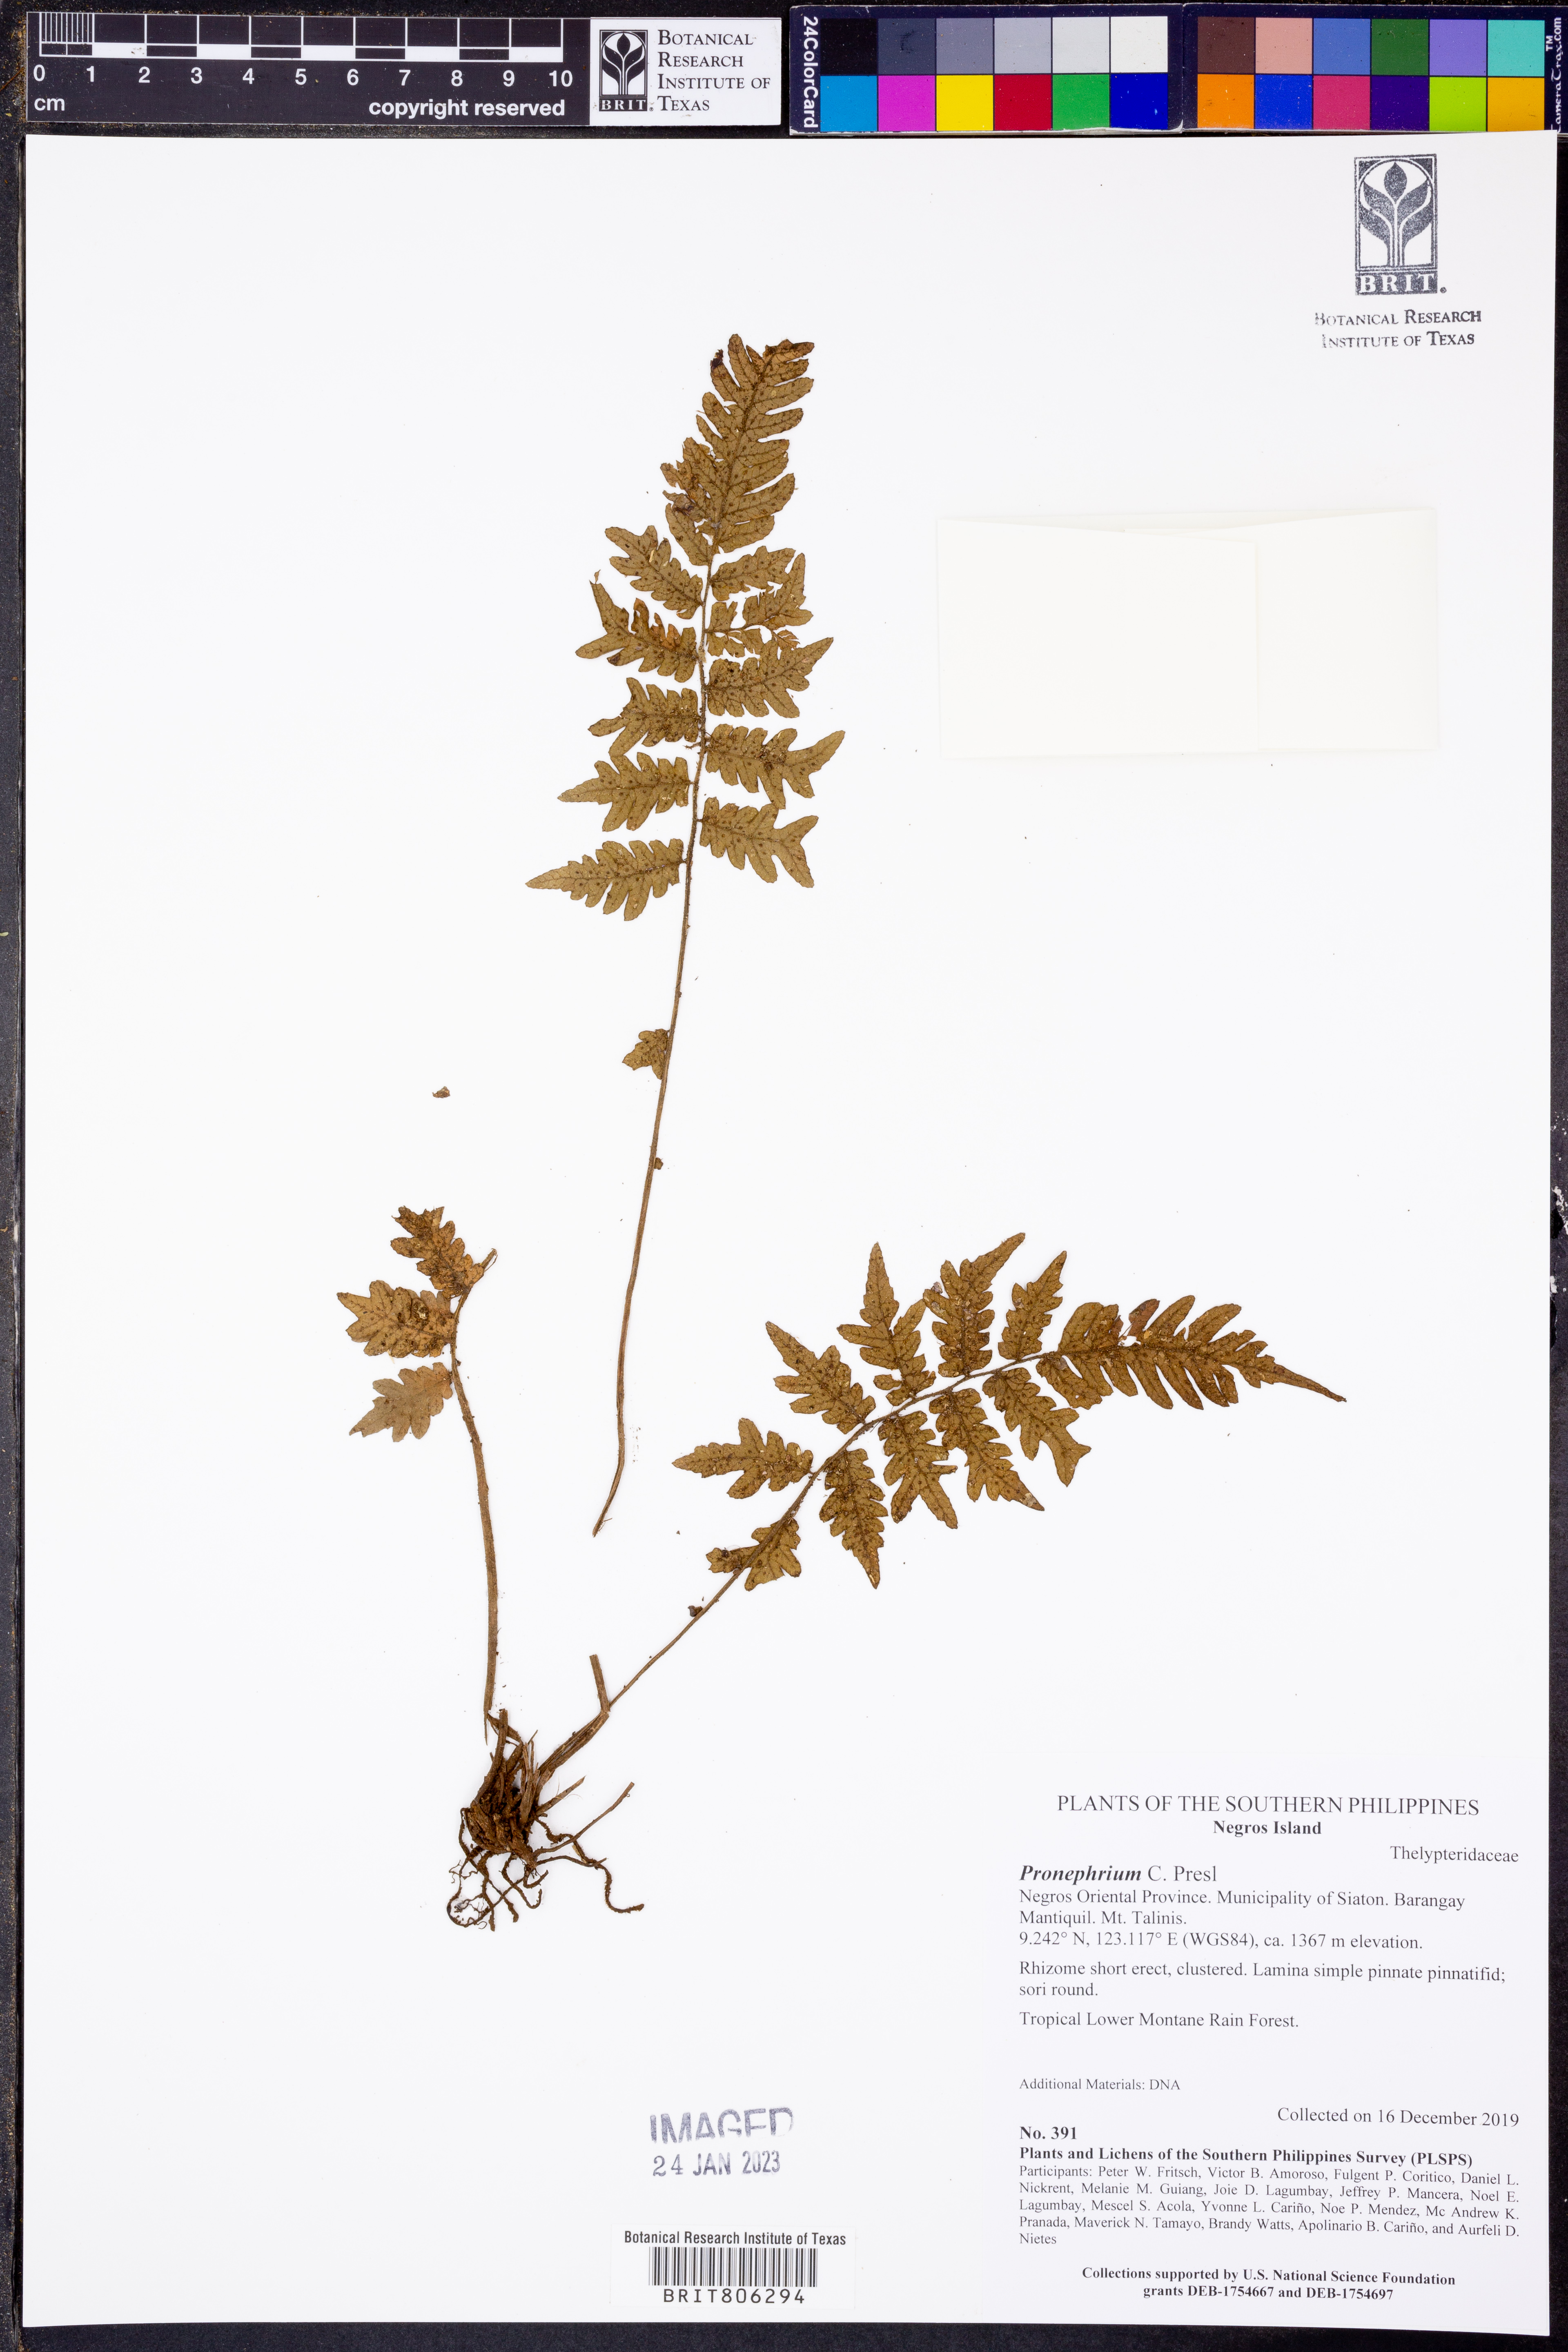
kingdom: Plantae
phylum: Tracheophyta
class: Polypodiopsida
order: Polypodiales
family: Thelypteridaceae
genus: Pronephrium
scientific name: Pronephrium
